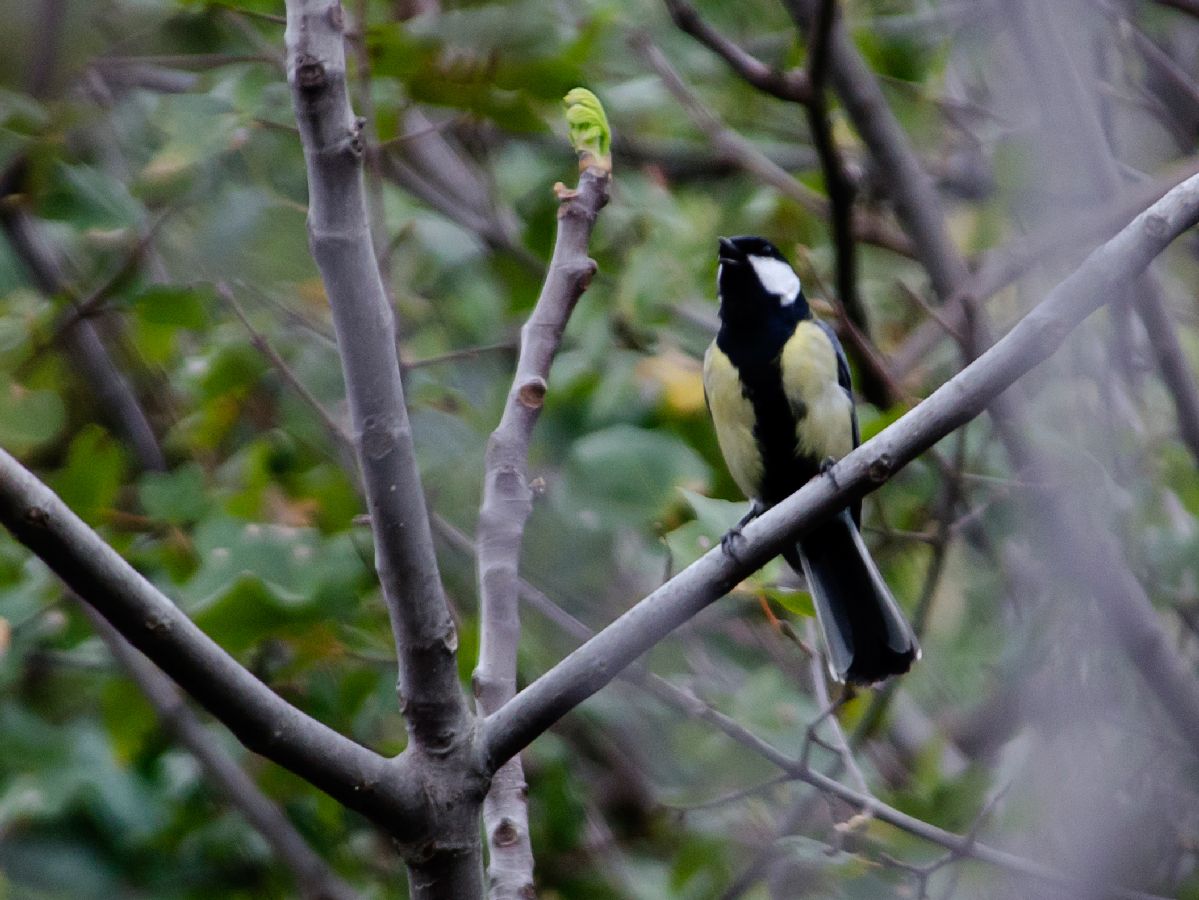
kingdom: Animalia
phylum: Chordata
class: Aves
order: Passeriformes
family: Paridae
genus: Parus
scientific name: Parus major
